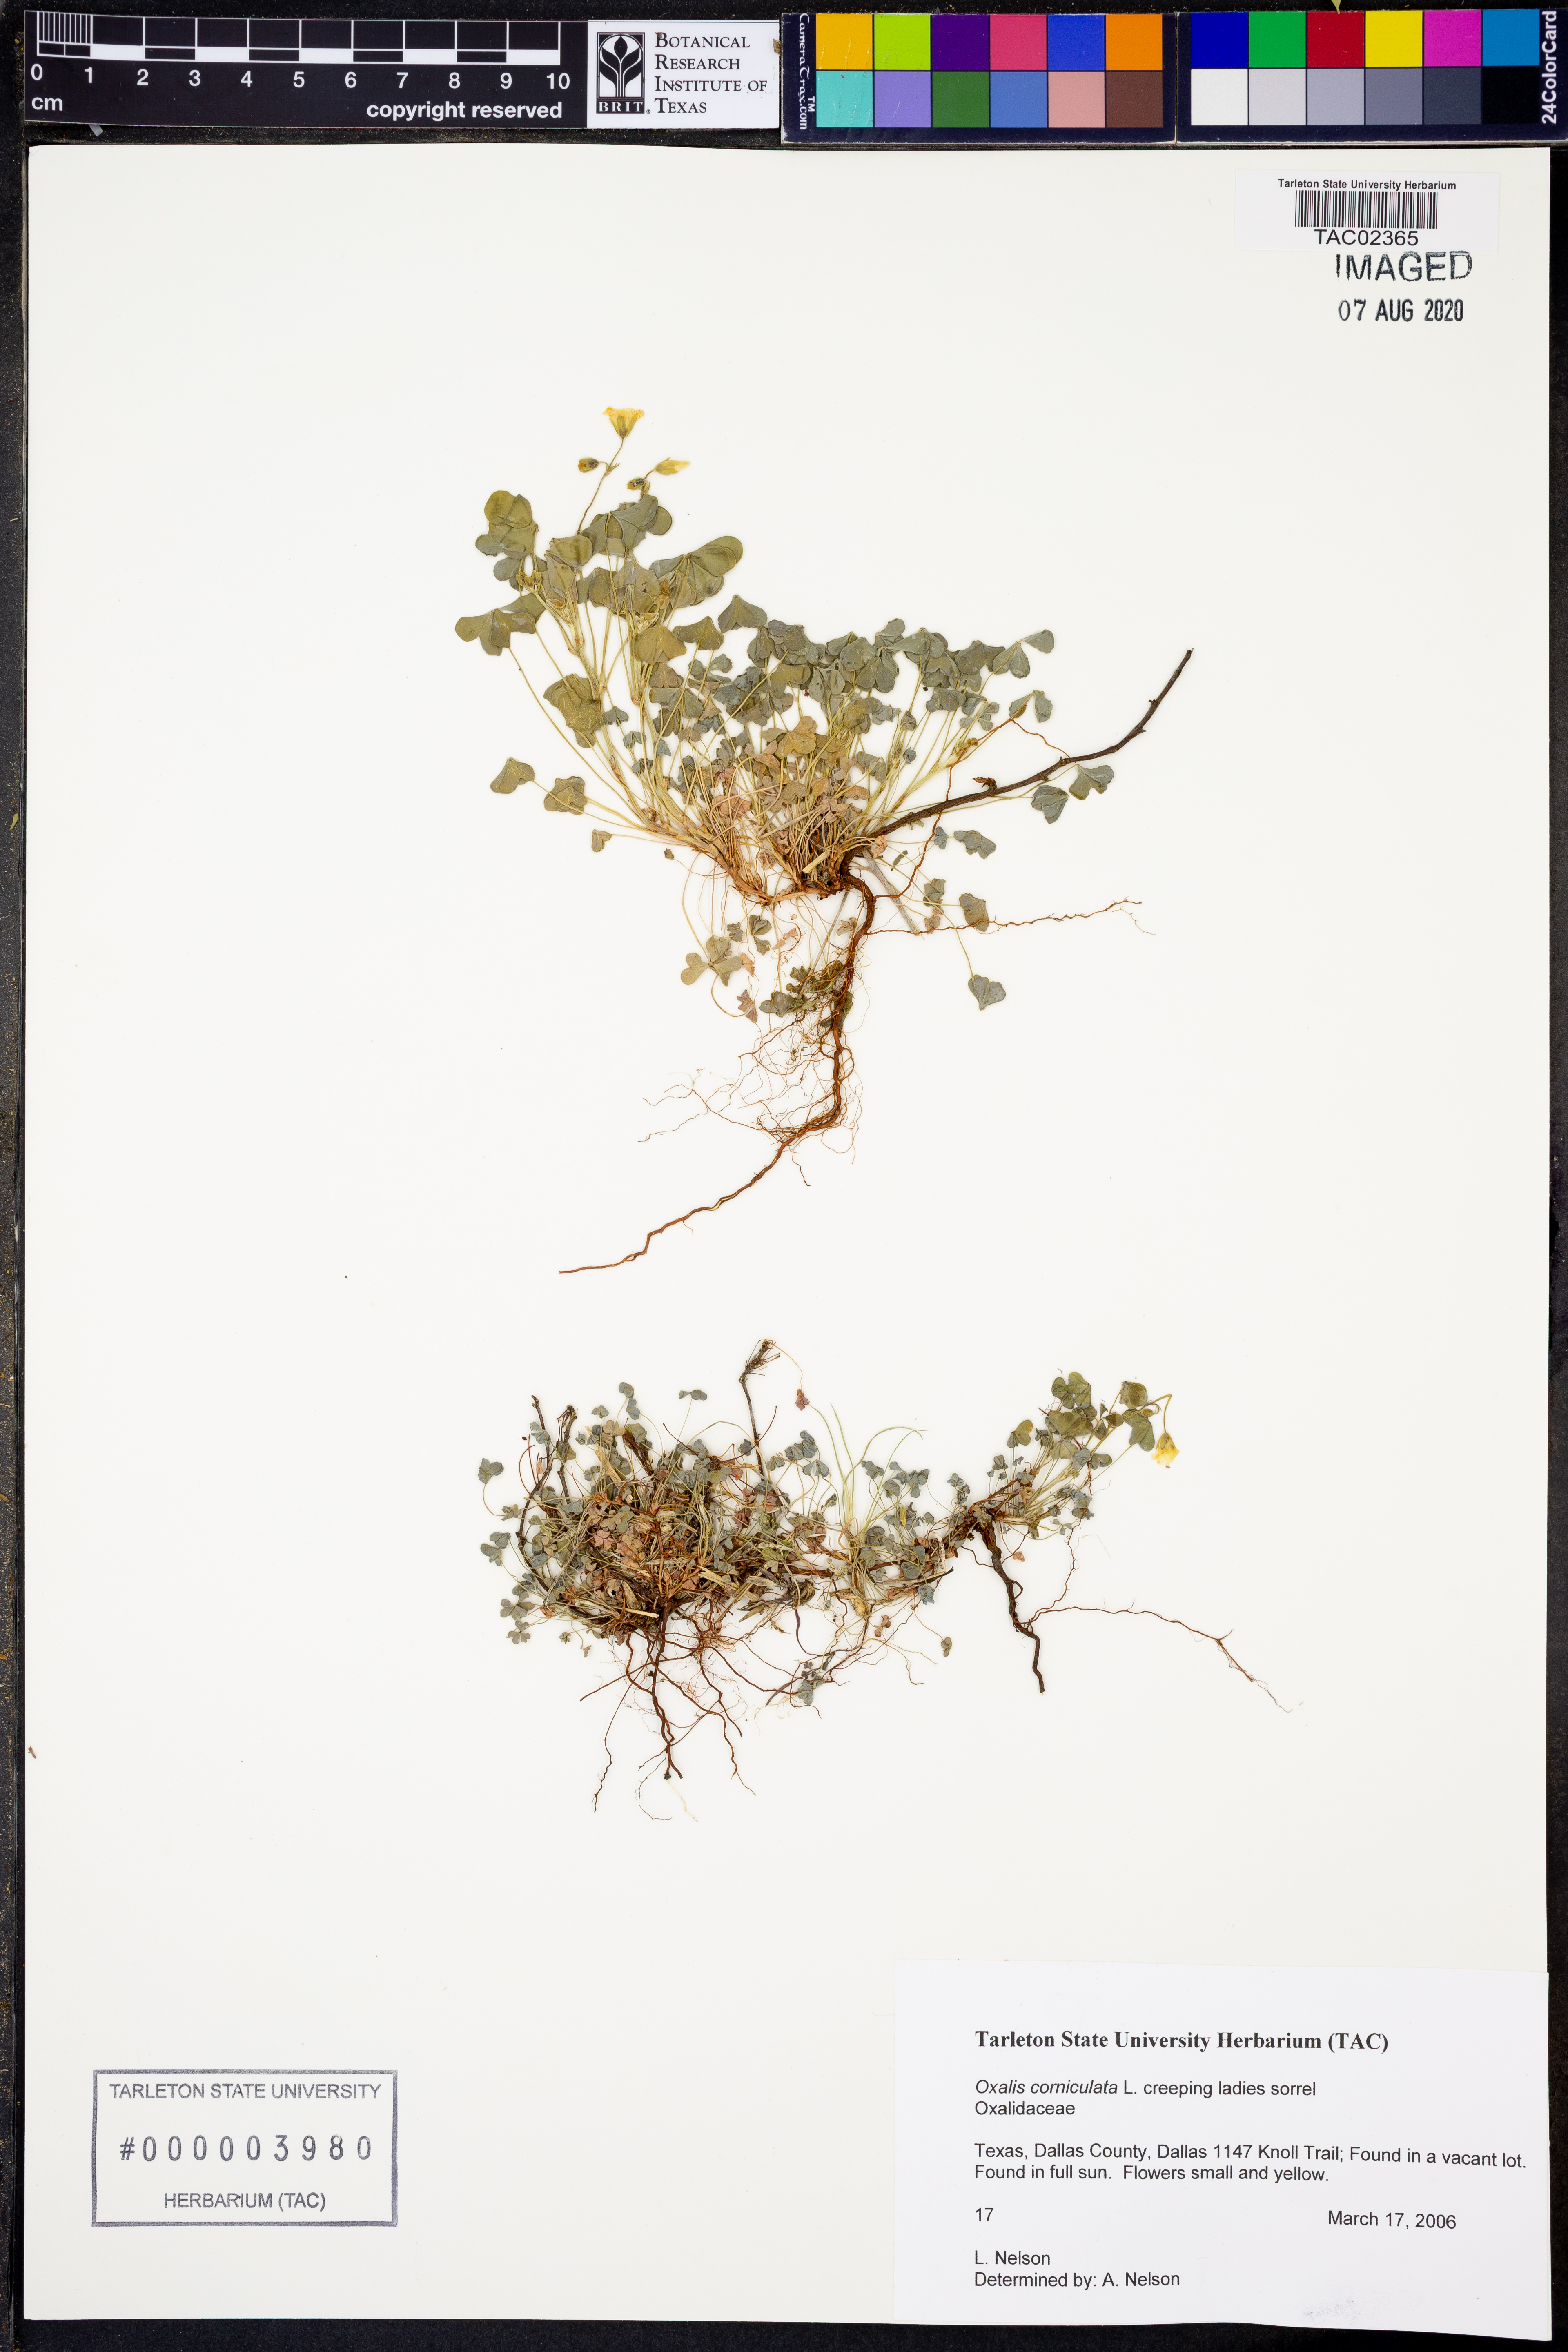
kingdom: Plantae
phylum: Tracheophyta
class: Magnoliopsida
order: Oxalidales
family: Oxalidaceae
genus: Oxalis
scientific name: Oxalis corniculata
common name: Procumbent yellow-sorrel
